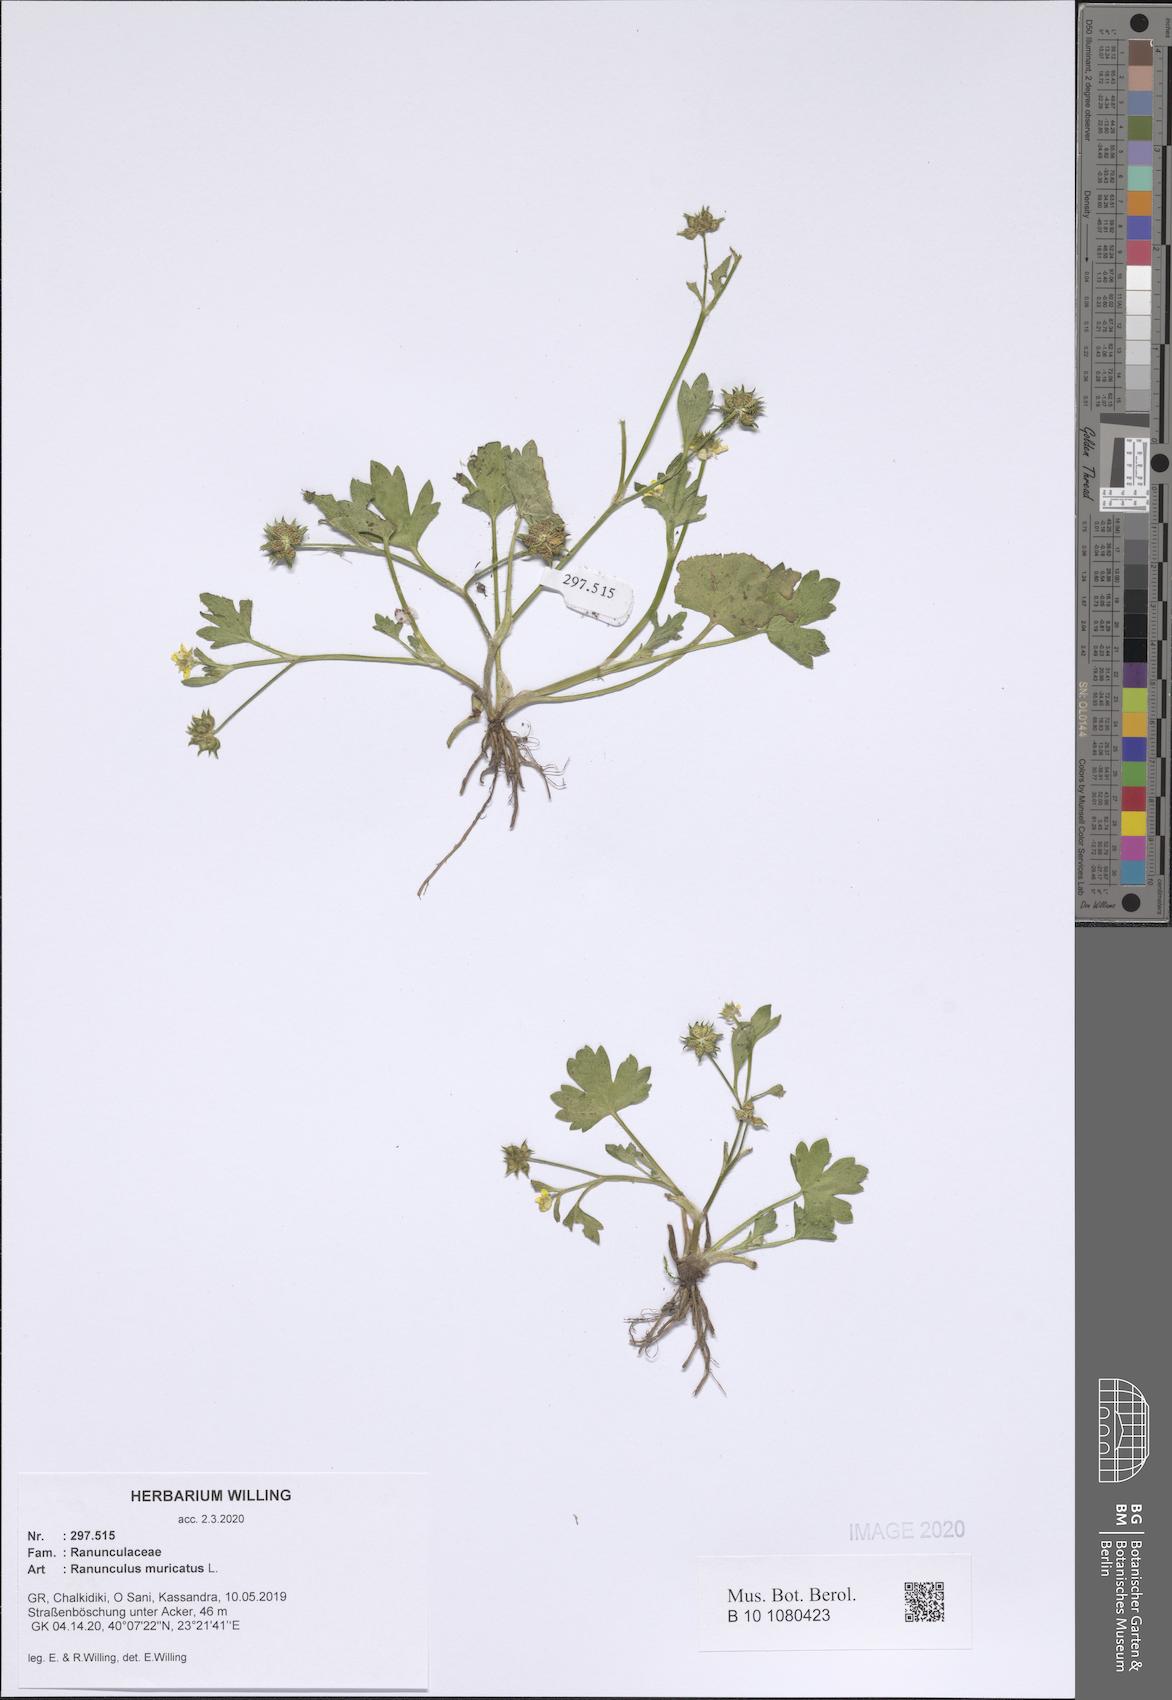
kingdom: Plantae
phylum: Tracheophyta
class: Magnoliopsida
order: Ranunculales
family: Ranunculaceae
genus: Ranunculus
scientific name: Ranunculus muricatus
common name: Rough-fruited buttercup
